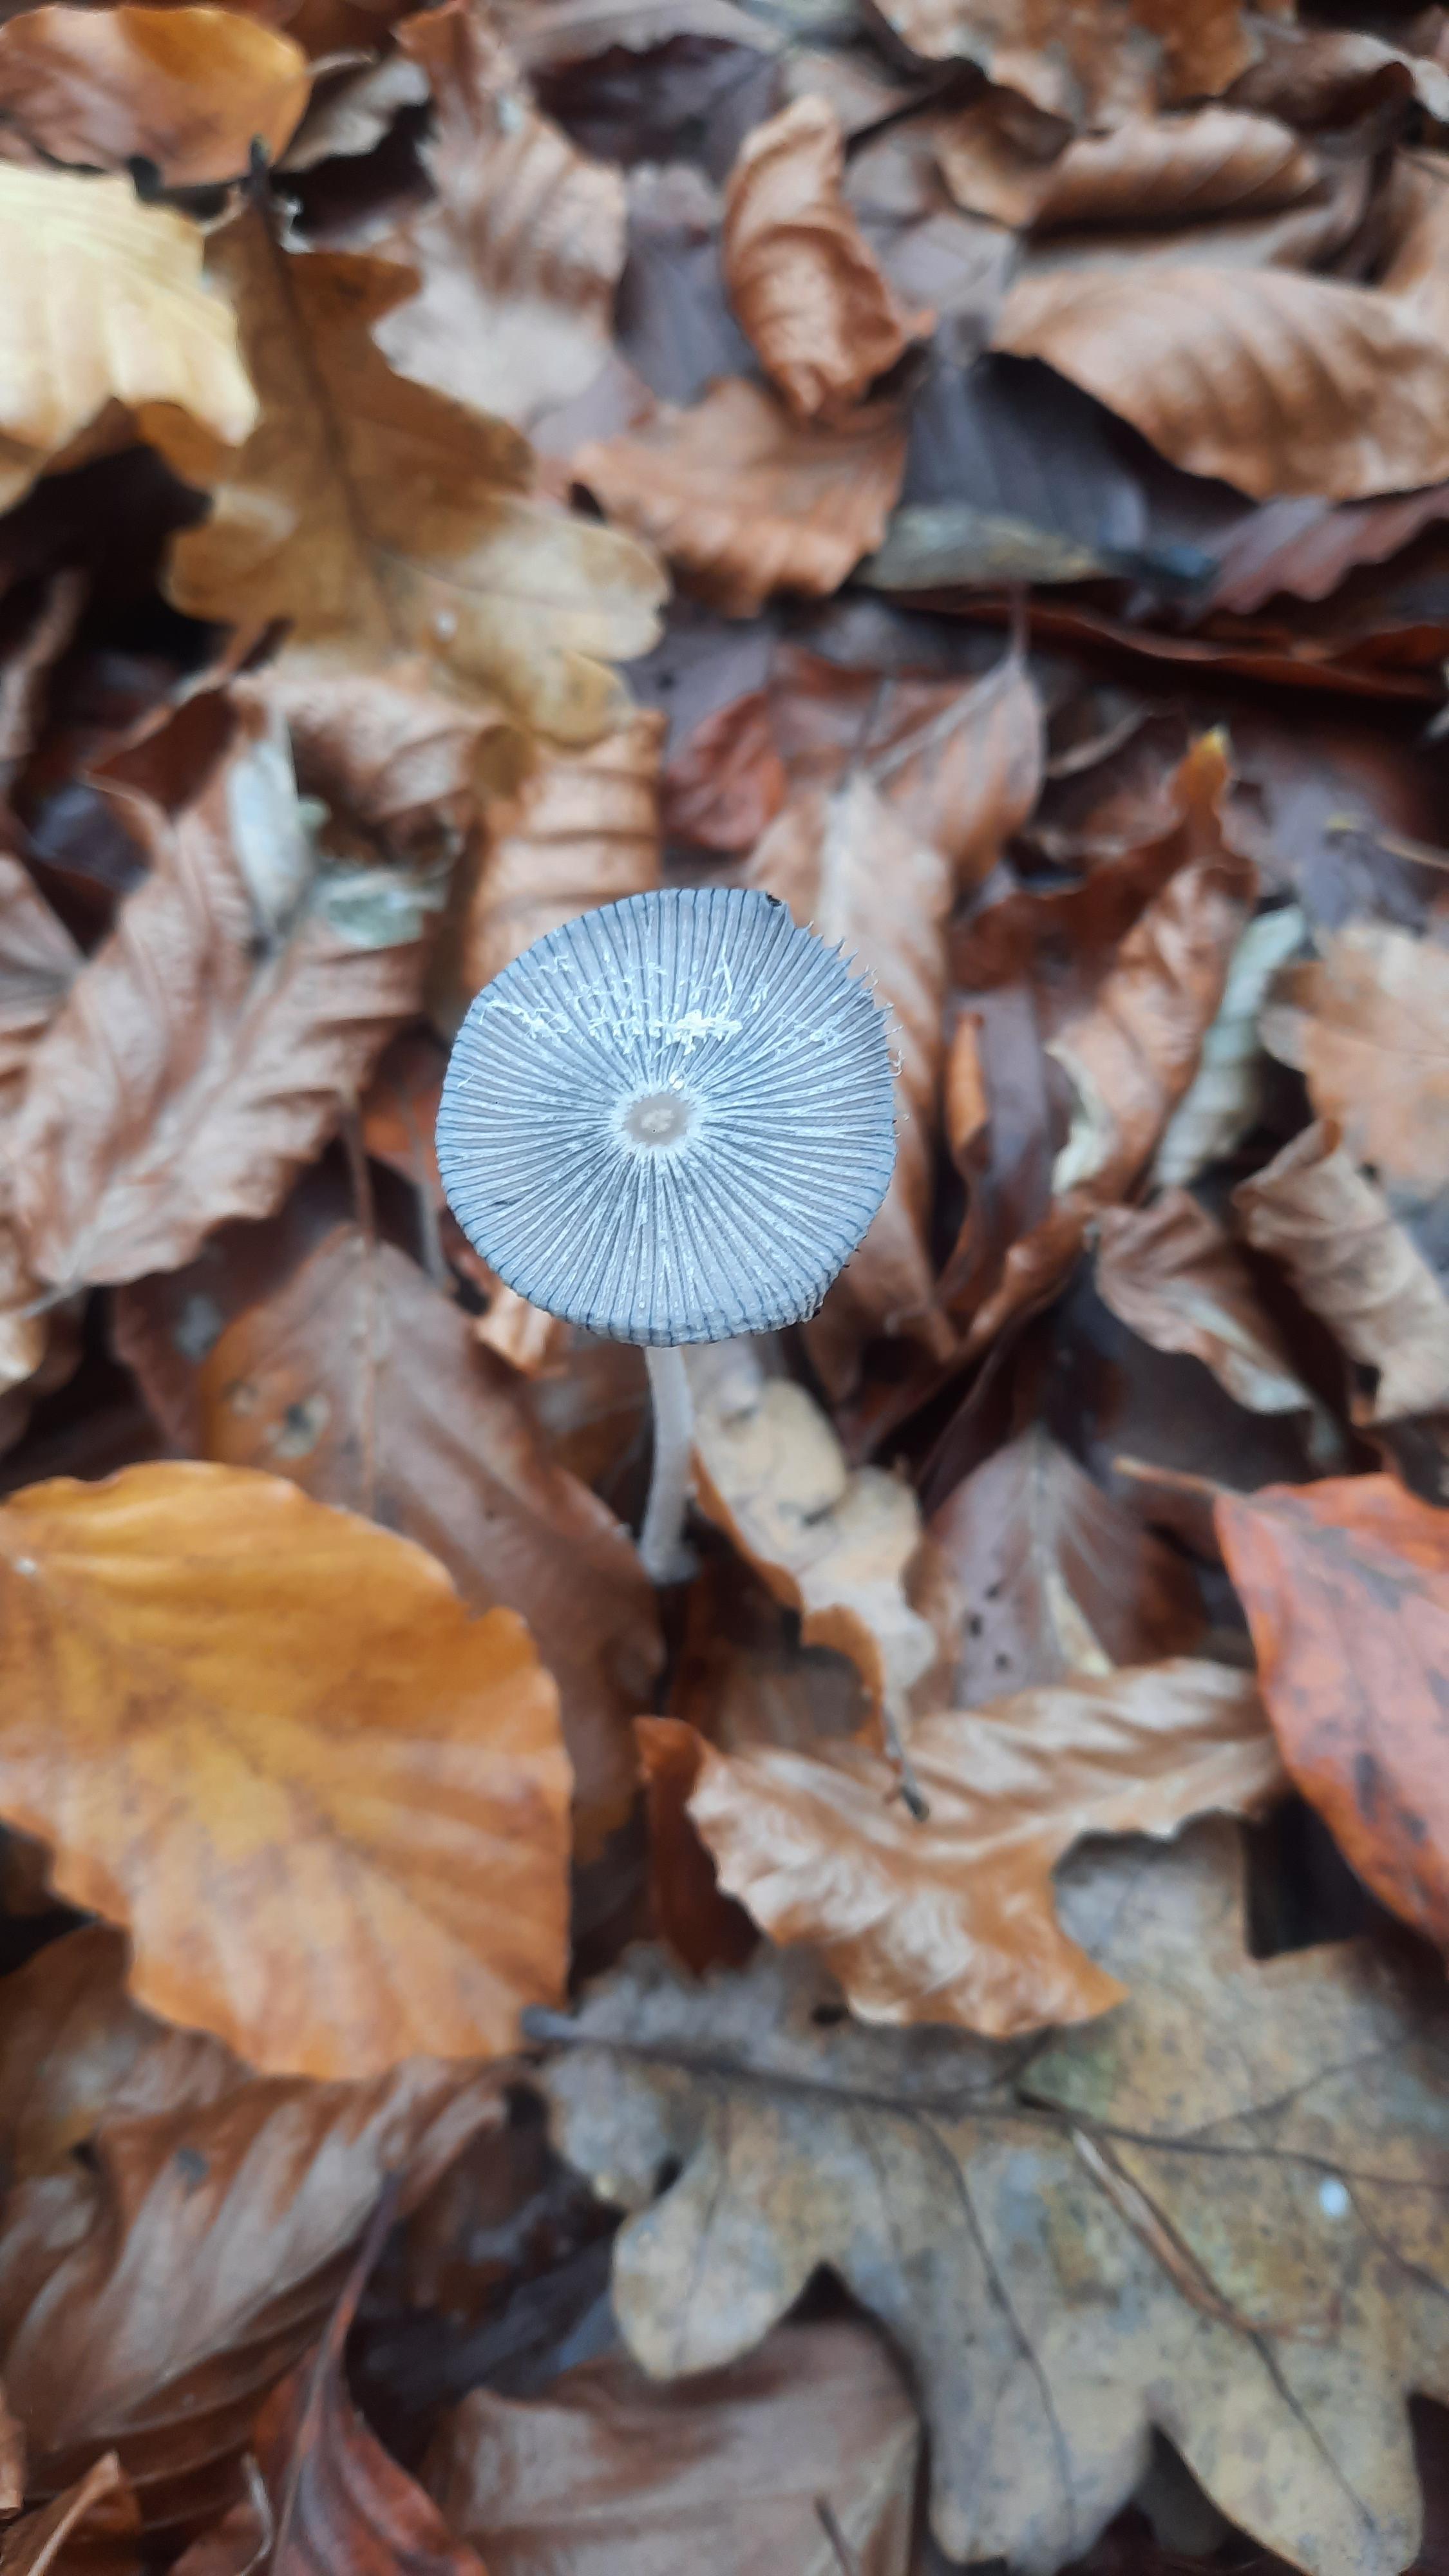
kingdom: Fungi
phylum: Basidiomycota
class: Agaricomycetes
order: Agaricales
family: Psathyrellaceae
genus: Coprinopsis
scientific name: Coprinopsis lagopus
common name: dunstokket blækhat
